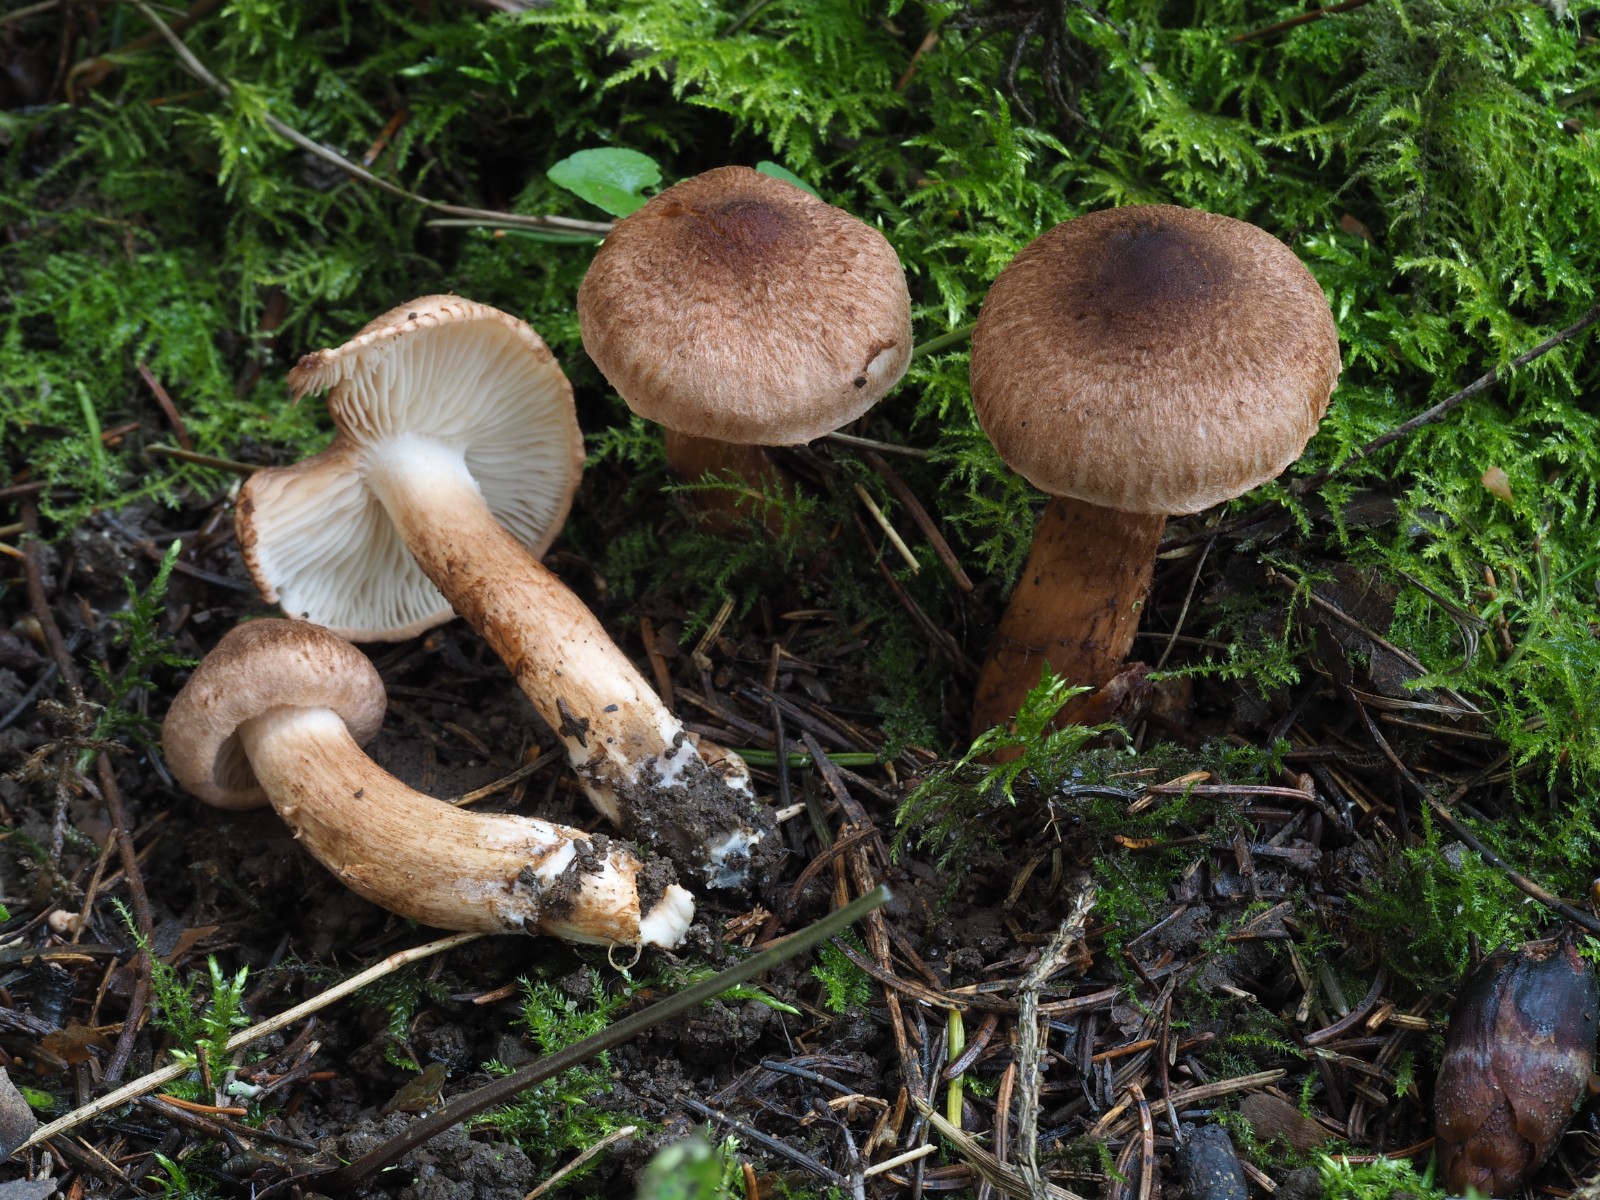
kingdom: Fungi
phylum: Basidiomycota
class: Agaricomycetes
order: Agaricales
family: Tricholomataceae
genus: Tricholoma
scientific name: Tricholoma vaccinum
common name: ko-ridderhat
